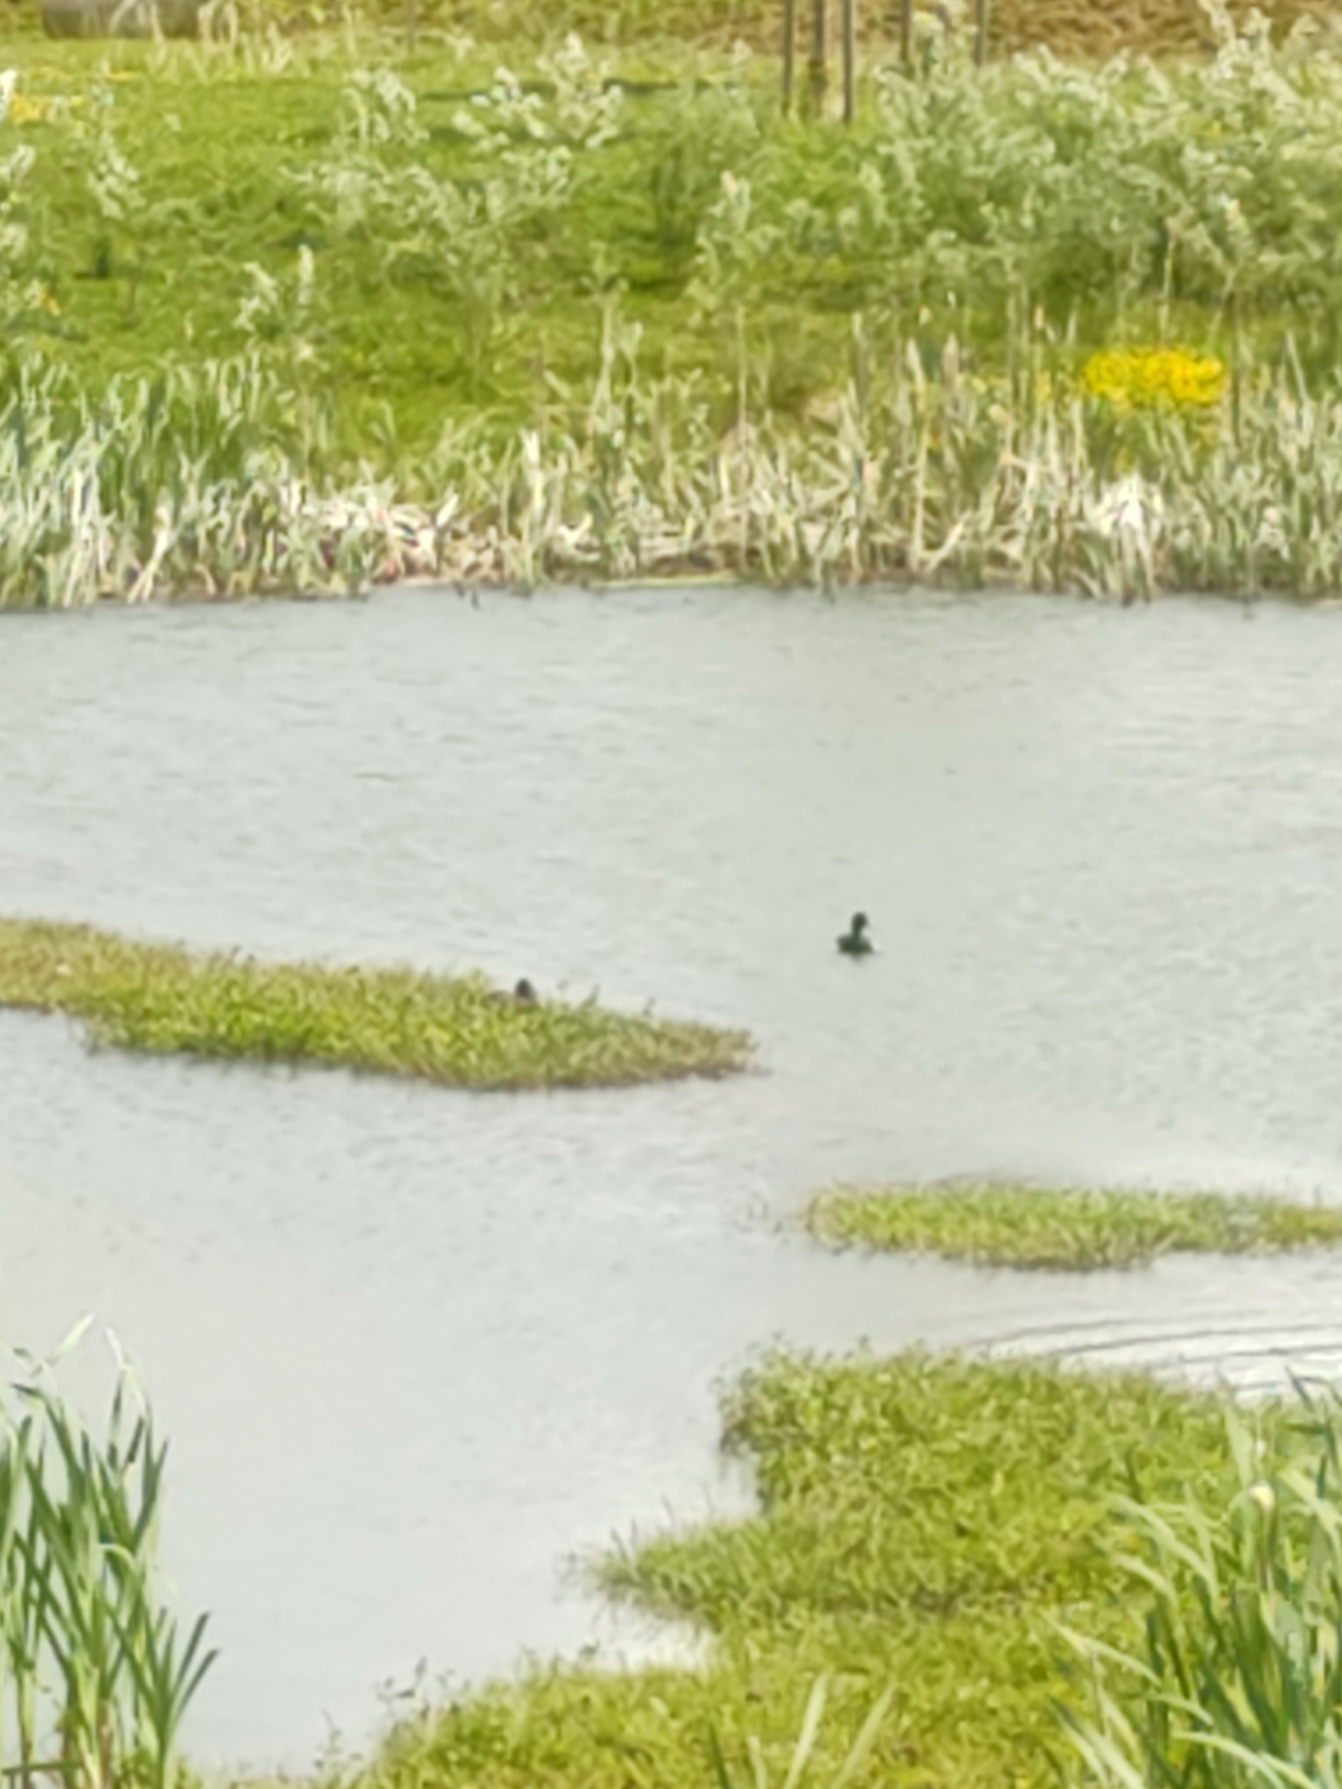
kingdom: Animalia
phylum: Chordata
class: Aves
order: Anseriformes
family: Anatidae
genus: Aythya
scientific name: Aythya fuligula
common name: Troldand
